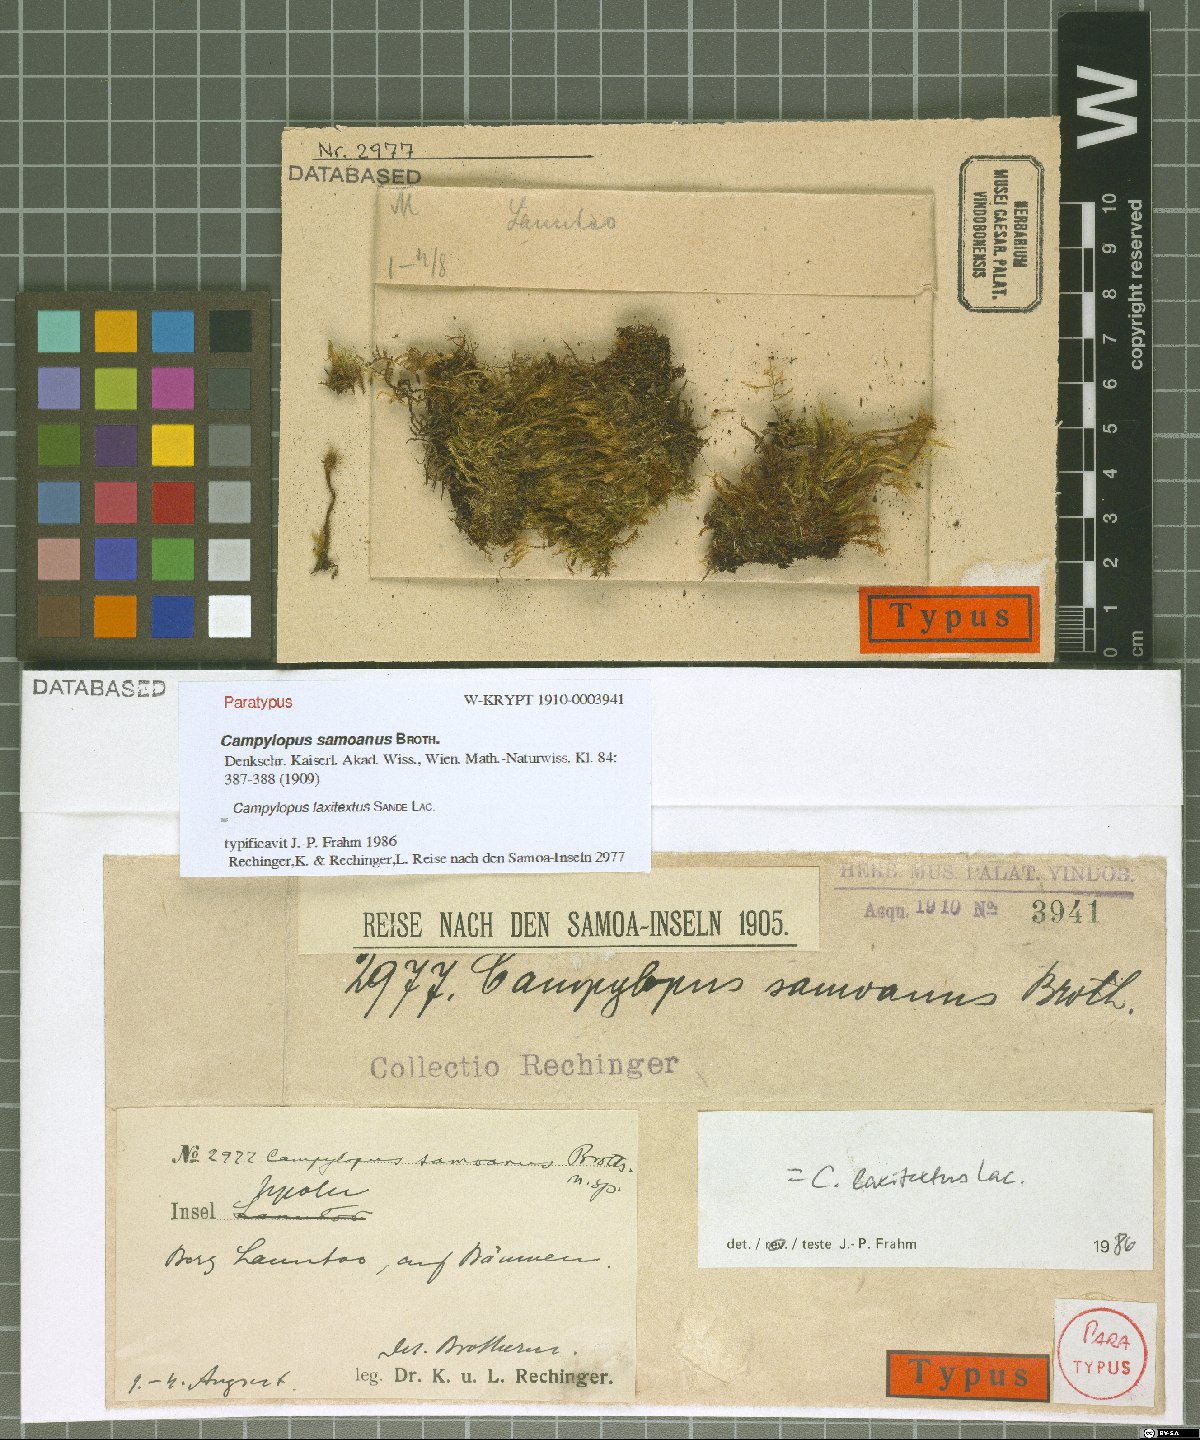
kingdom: Plantae
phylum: Bryophyta
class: Bryopsida
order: Dicranales
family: Leucobryaceae
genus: Campylopus
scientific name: Campylopus laxitextus
